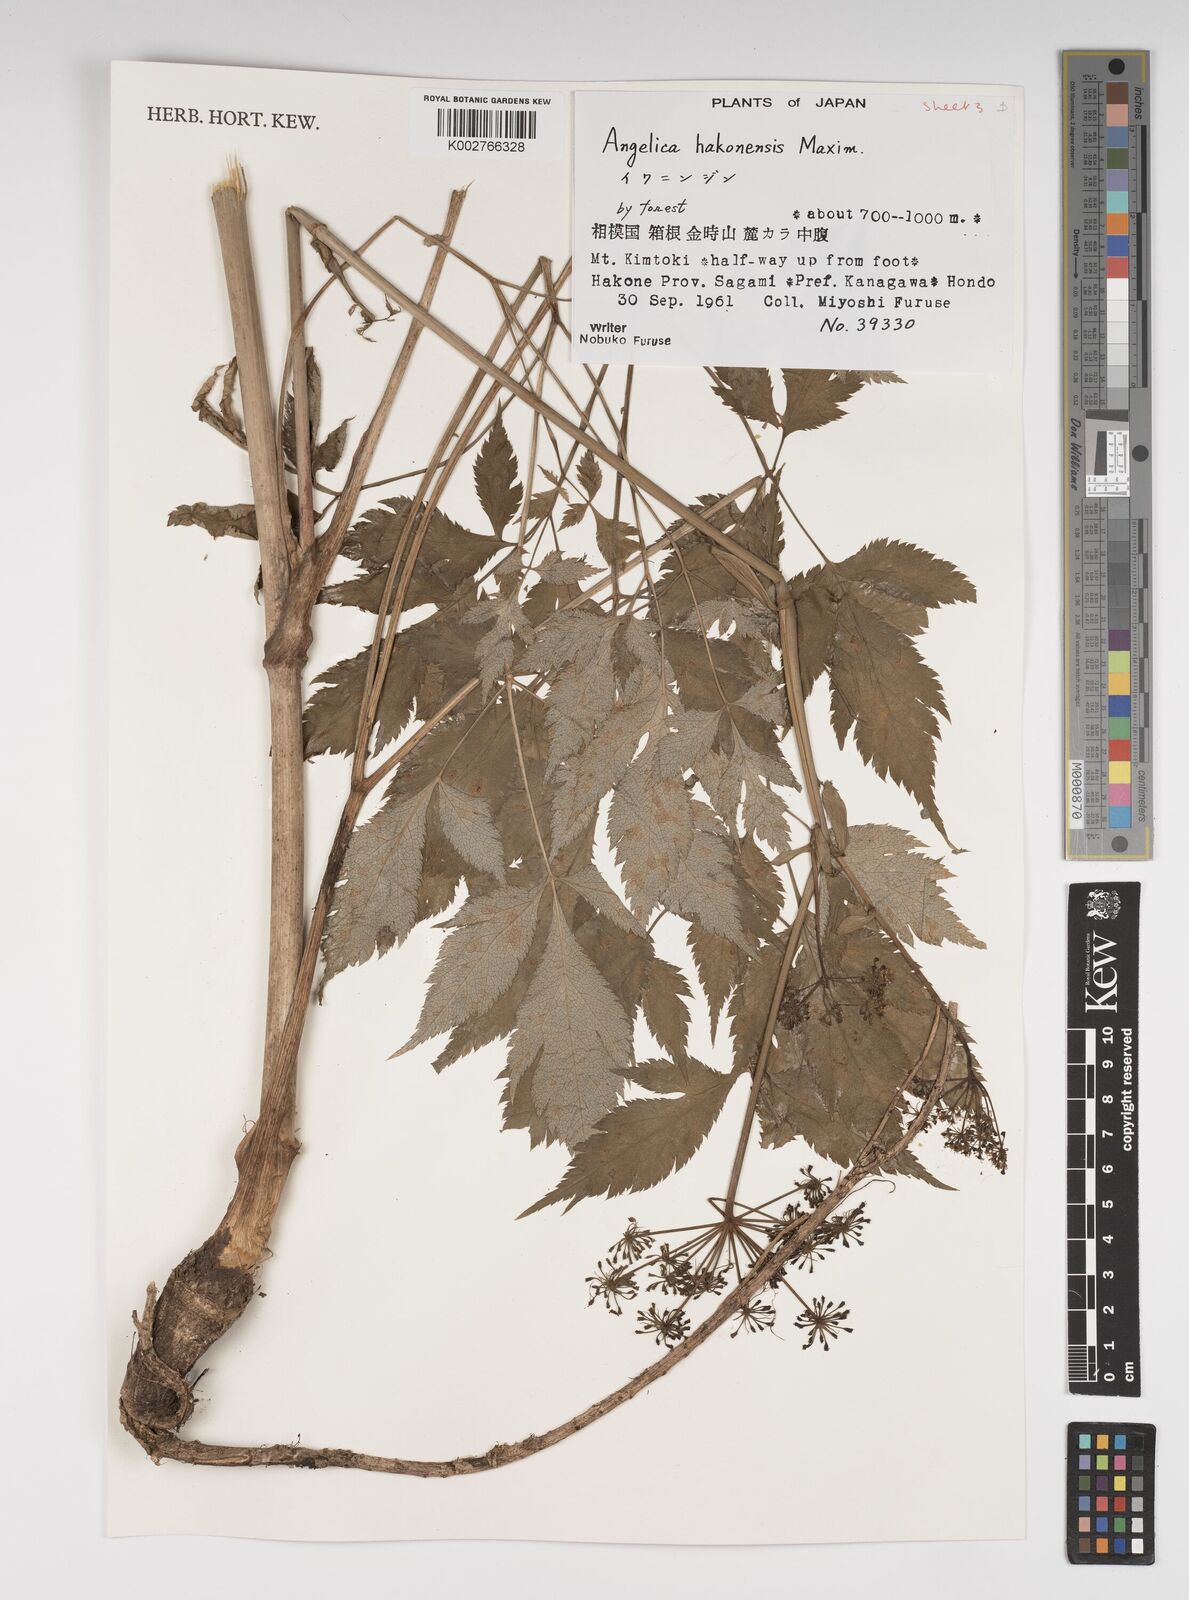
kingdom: Plantae
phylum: Tracheophyta
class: Magnoliopsida
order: Apiales
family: Apiaceae
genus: Angelica
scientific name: Angelica hakonensis
